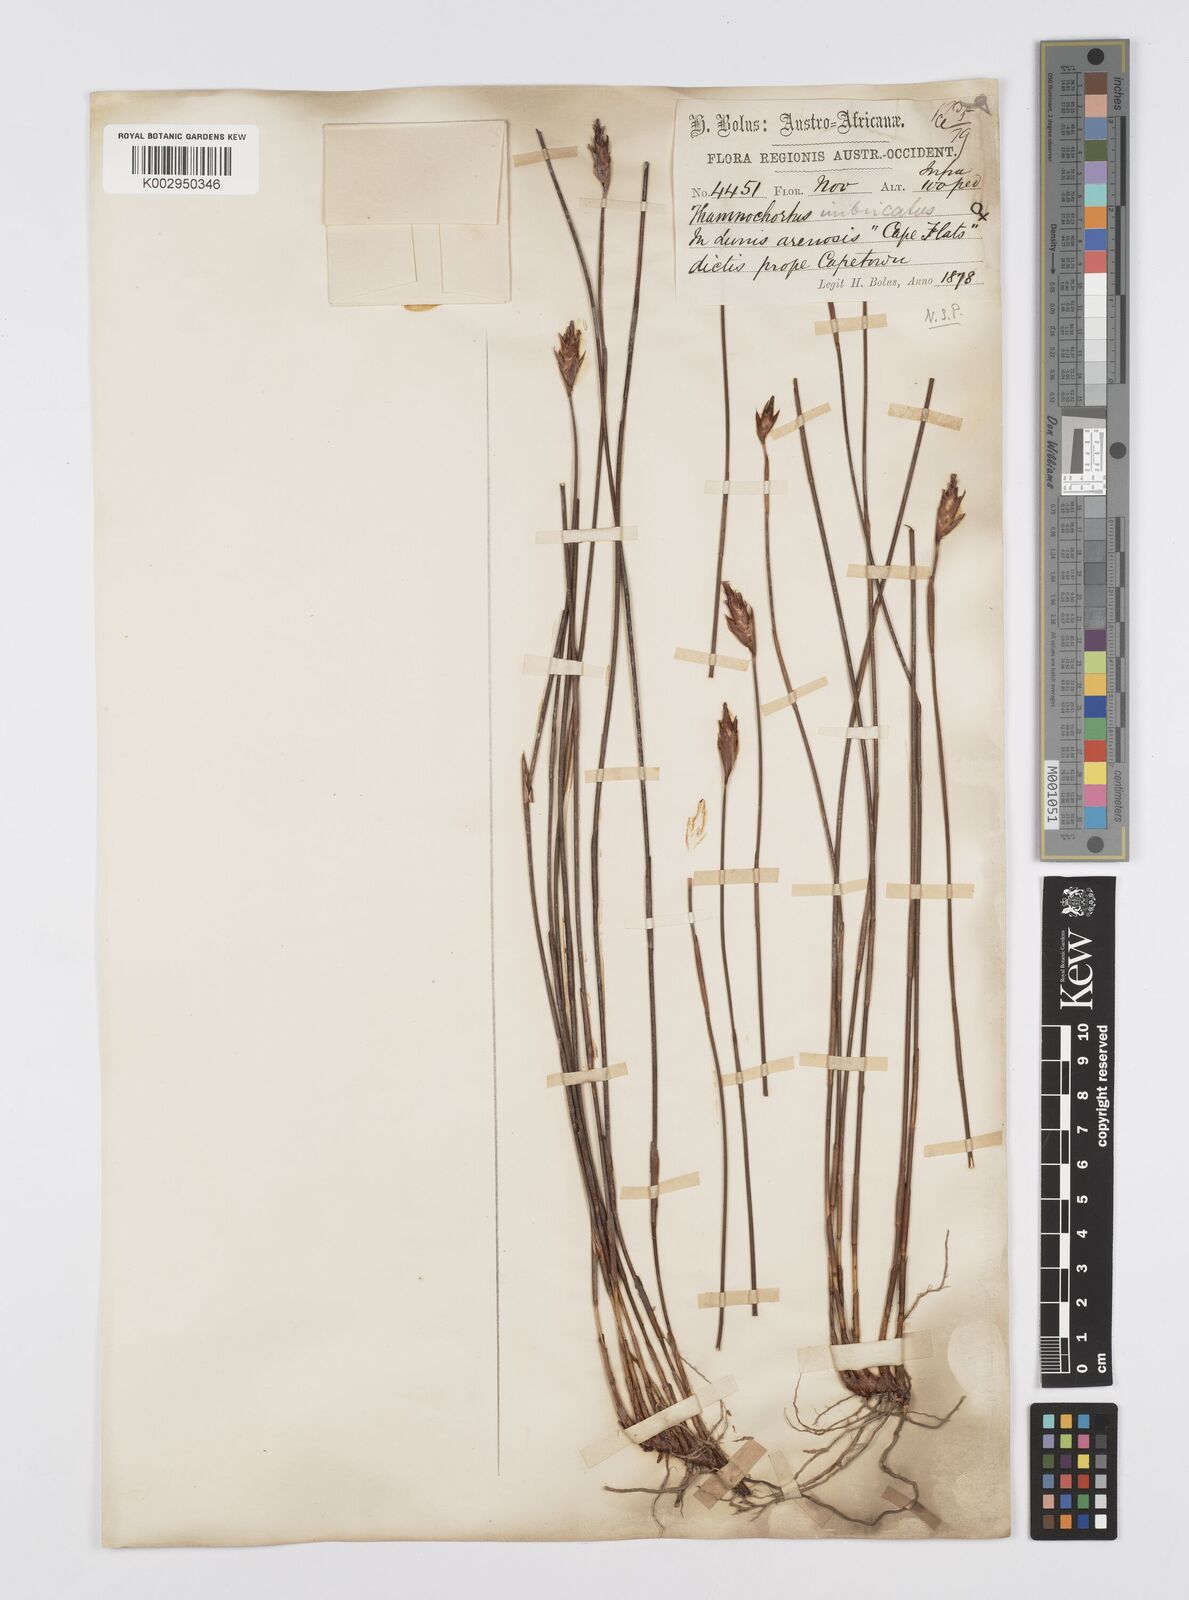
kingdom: Plantae
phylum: Tracheophyta
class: Liliopsida
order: Poales
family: Restionaceae
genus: Staberoha
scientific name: Staberoha distachyos
